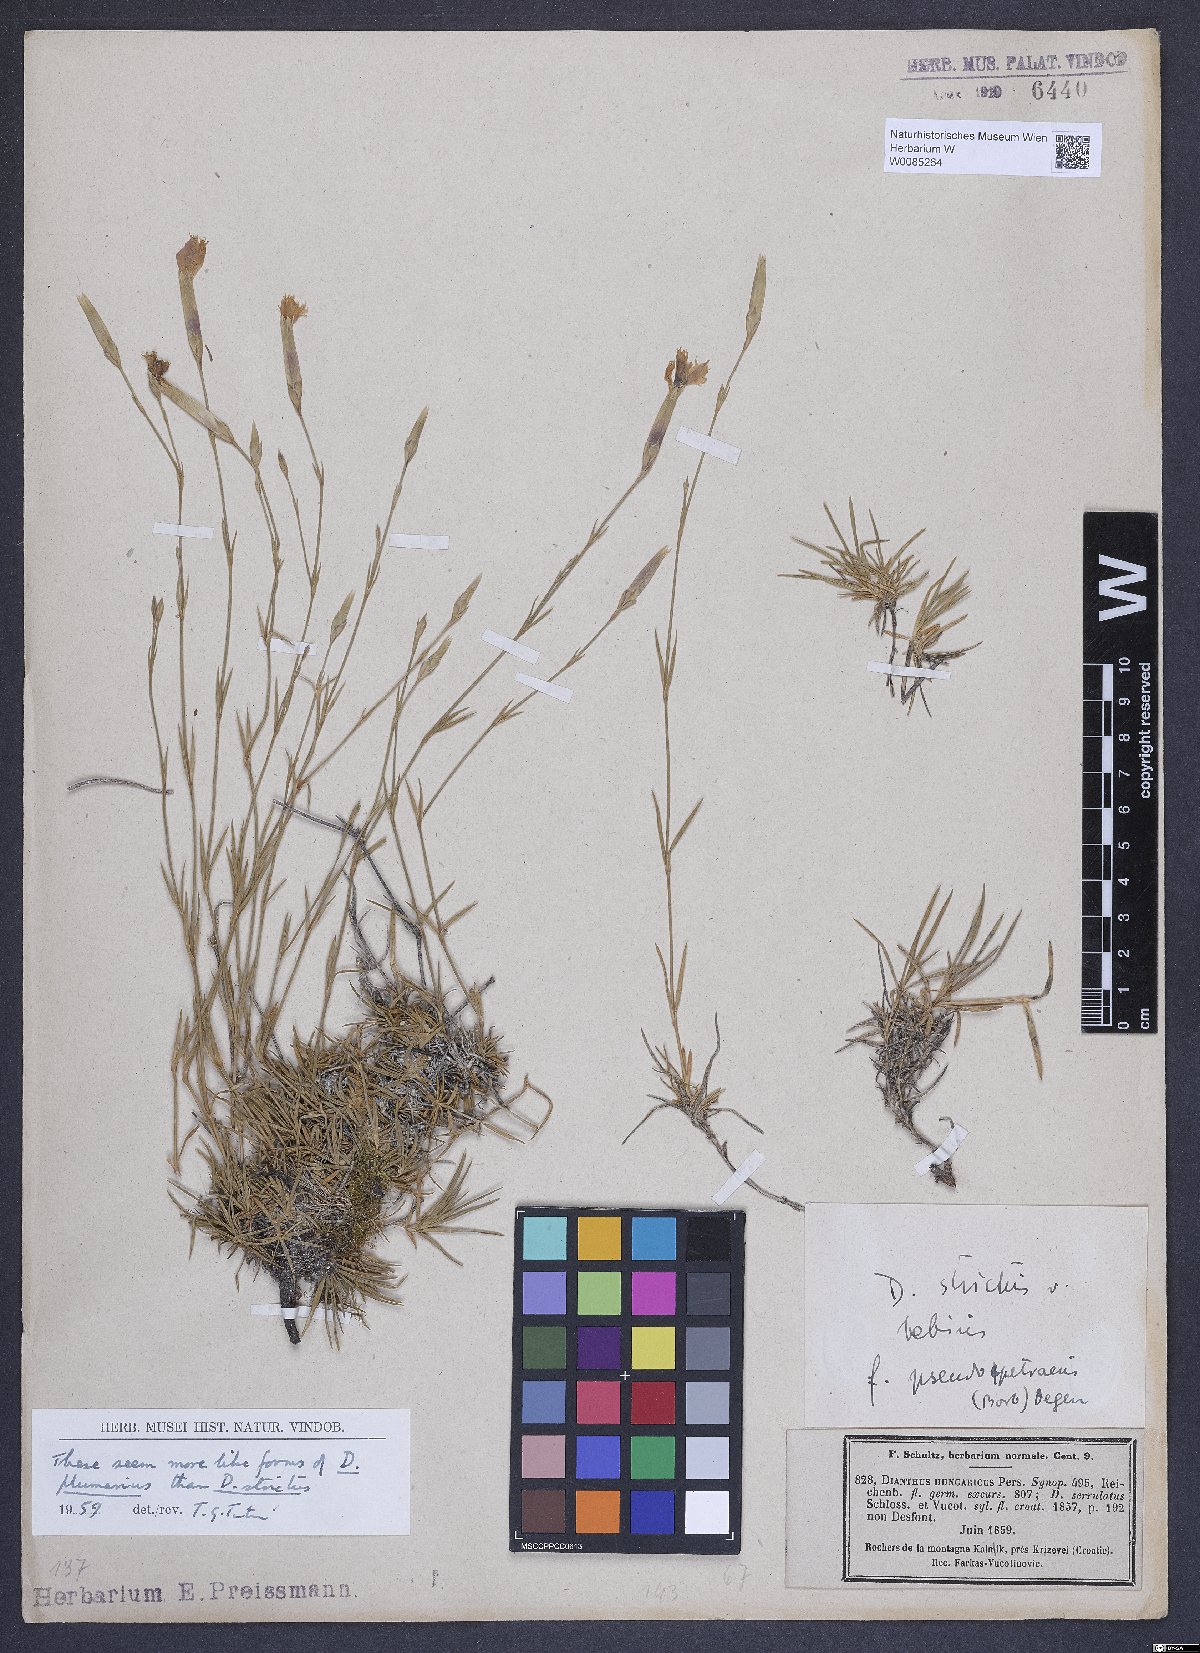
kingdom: Plantae
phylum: Tracheophyta
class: Magnoliopsida
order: Caryophyllales
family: Caryophyllaceae
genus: Dianthus
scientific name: Dianthus petraeus
